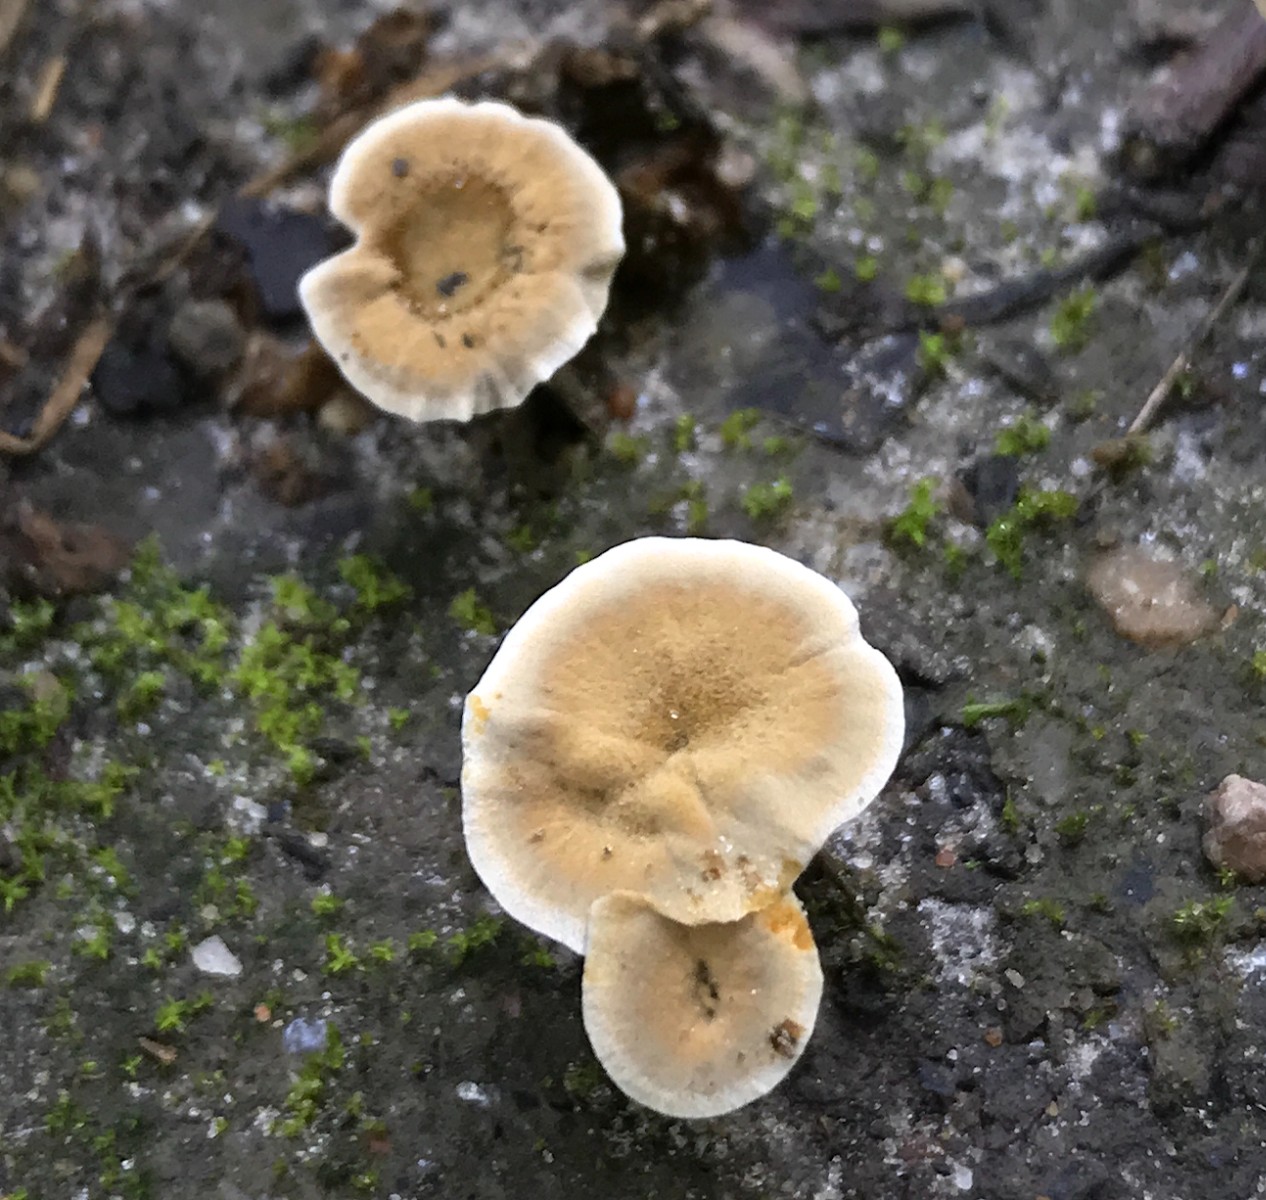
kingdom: Fungi
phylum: Basidiomycota
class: Agaricomycetes
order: Hymenochaetales
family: Hymenochaetaceae
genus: Coltricia
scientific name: Coltricia confluens
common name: park-sandporesvamp
